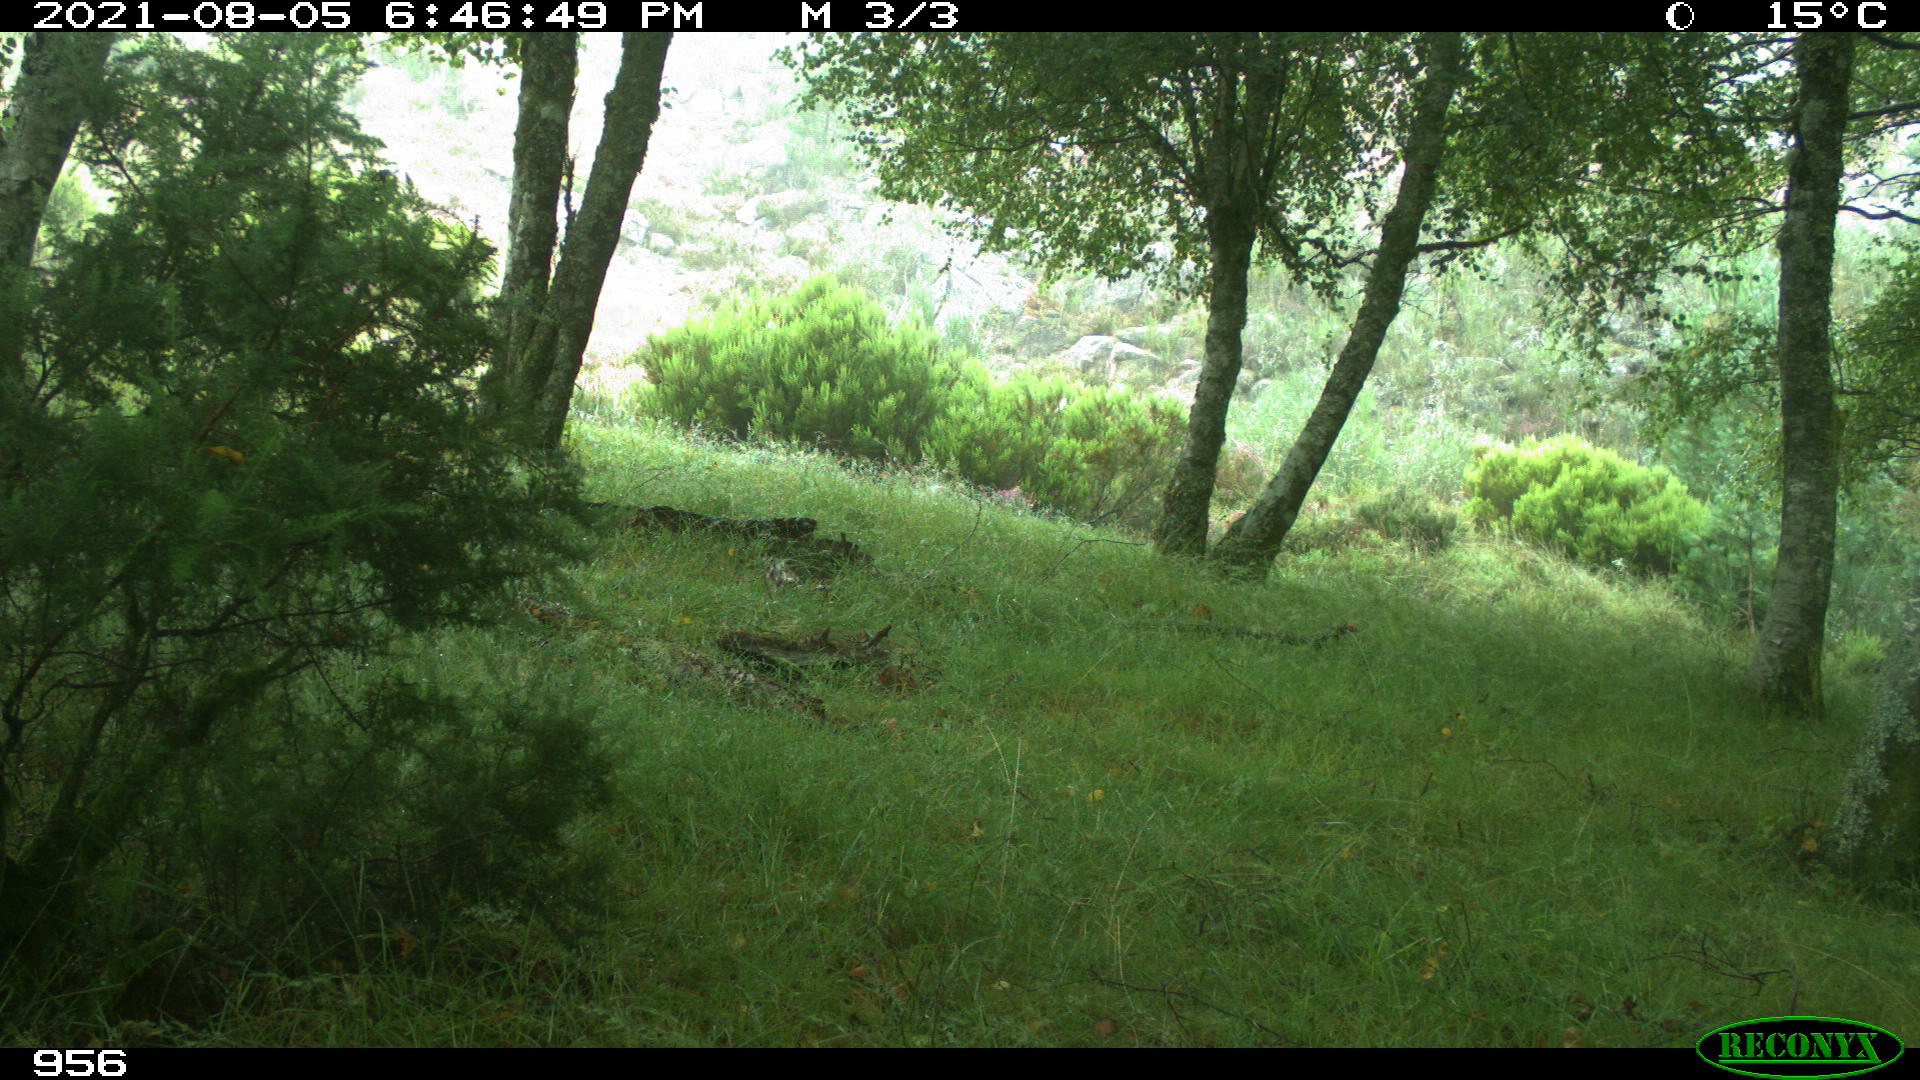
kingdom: Animalia
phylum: Chordata
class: Mammalia
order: Artiodactyla
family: Suidae
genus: Sus
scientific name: Sus scrofa
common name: Wild boar
